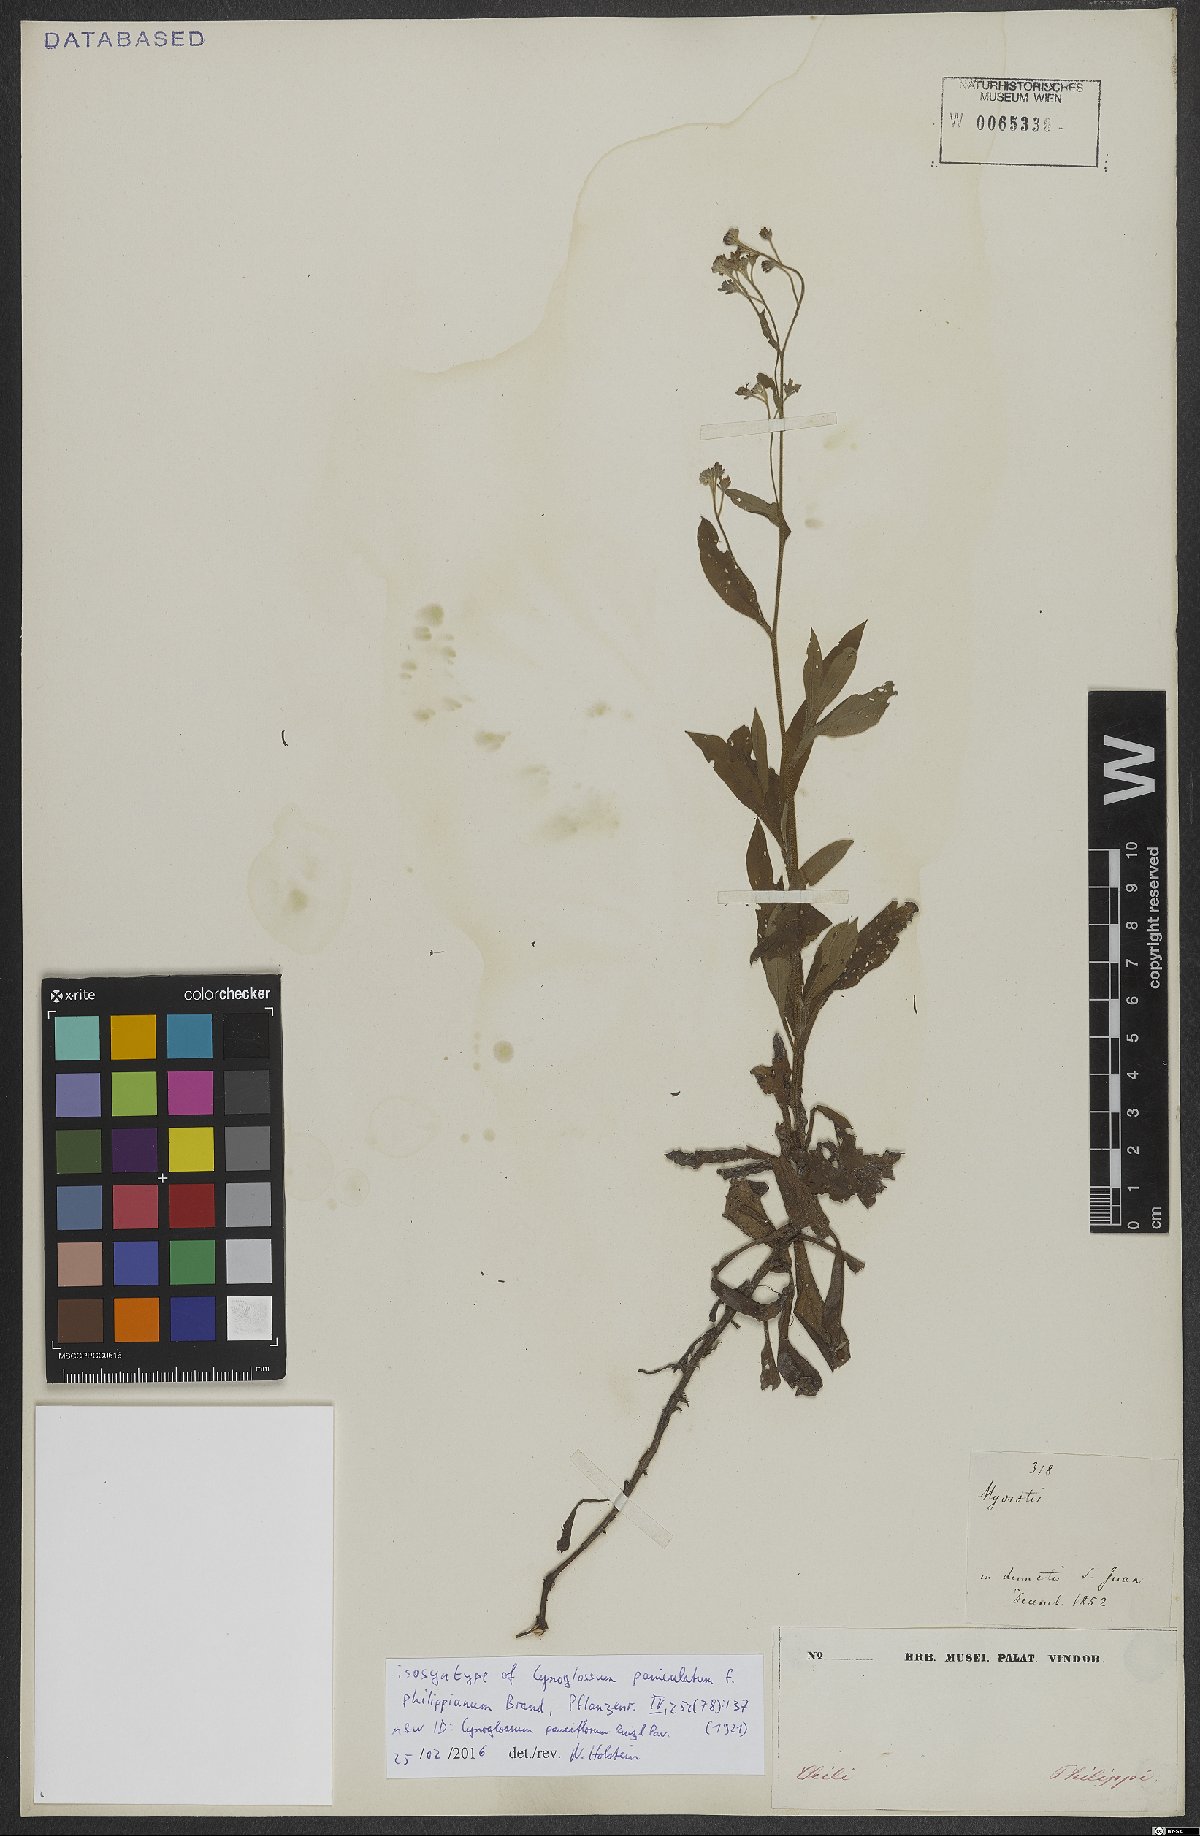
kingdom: Plantae
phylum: Tracheophyta
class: Magnoliopsida
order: Boraginales
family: Boraginaceae
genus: Selkirkia
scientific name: Selkirkia pauciflora
